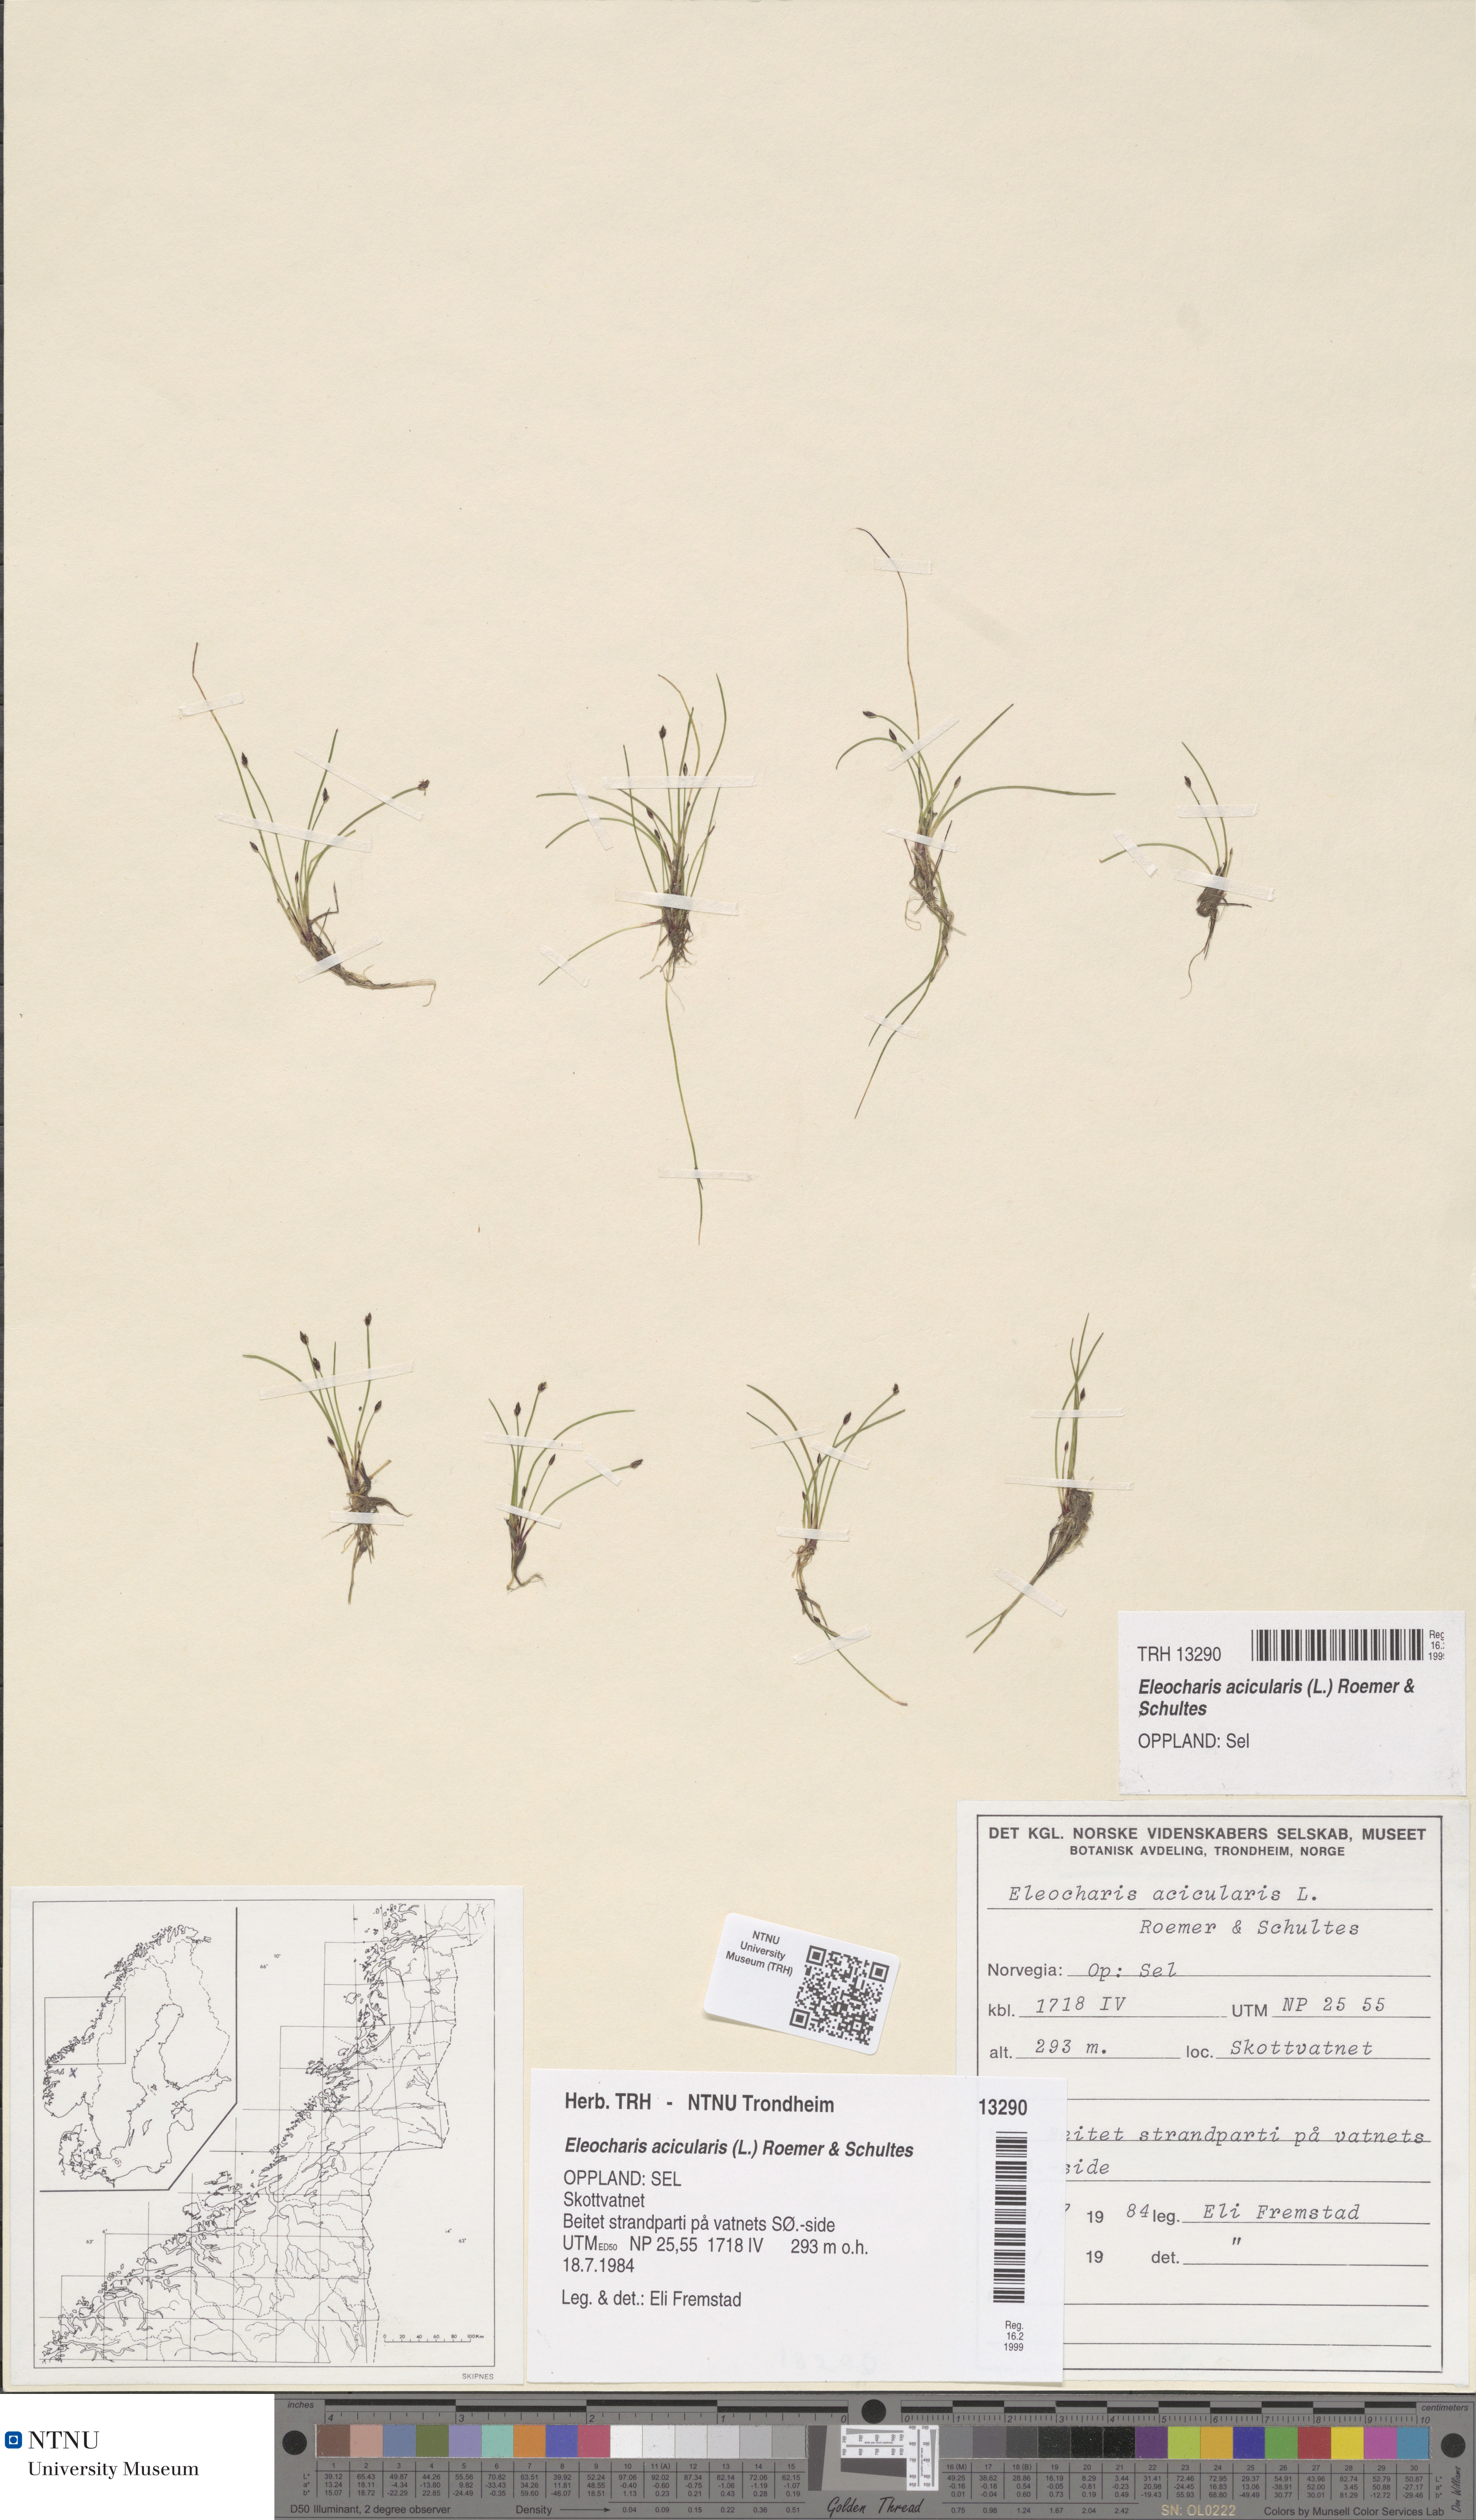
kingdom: Plantae
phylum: Tracheophyta
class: Liliopsida
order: Poales
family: Cyperaceae
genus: Eleocharis
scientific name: Eleocharis acicularis
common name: Needle spike-rush
